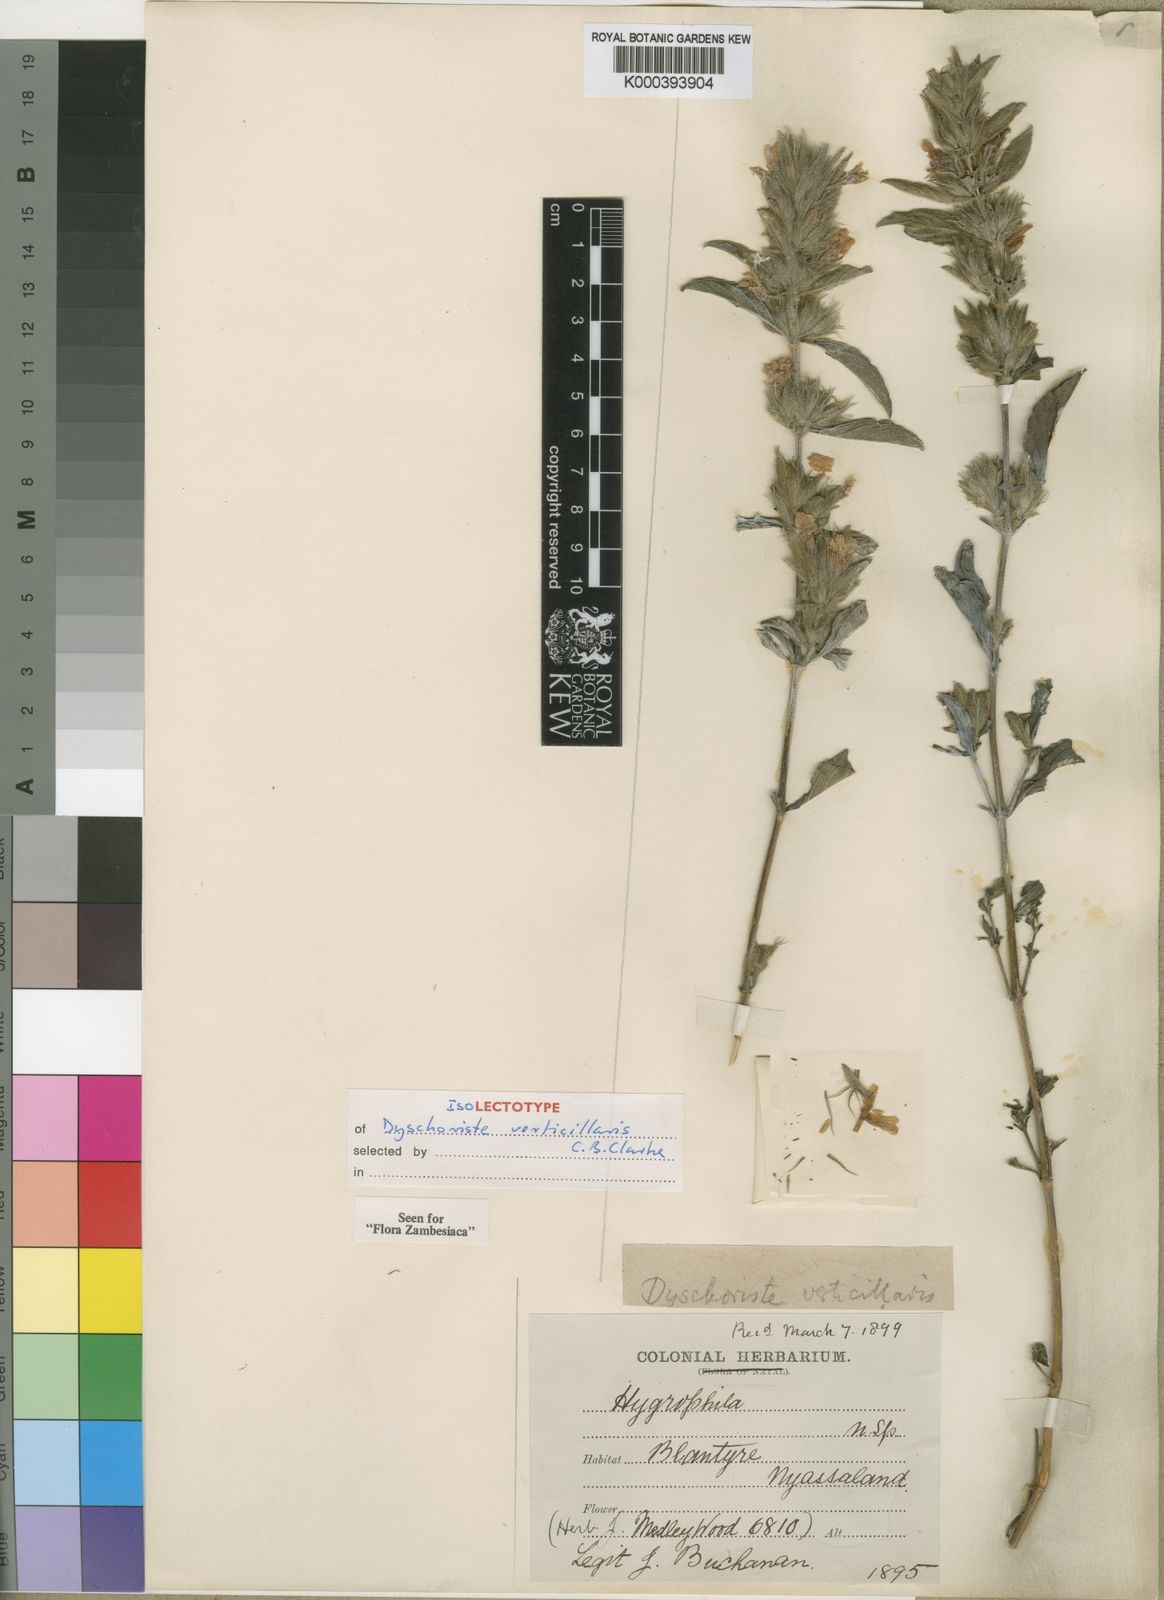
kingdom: Plantae
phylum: Tracheophyta
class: Magnoliopsida
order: Lamiales
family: Acanthaceae
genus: Dyschoriste
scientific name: Dyschoriste trichocalyx
